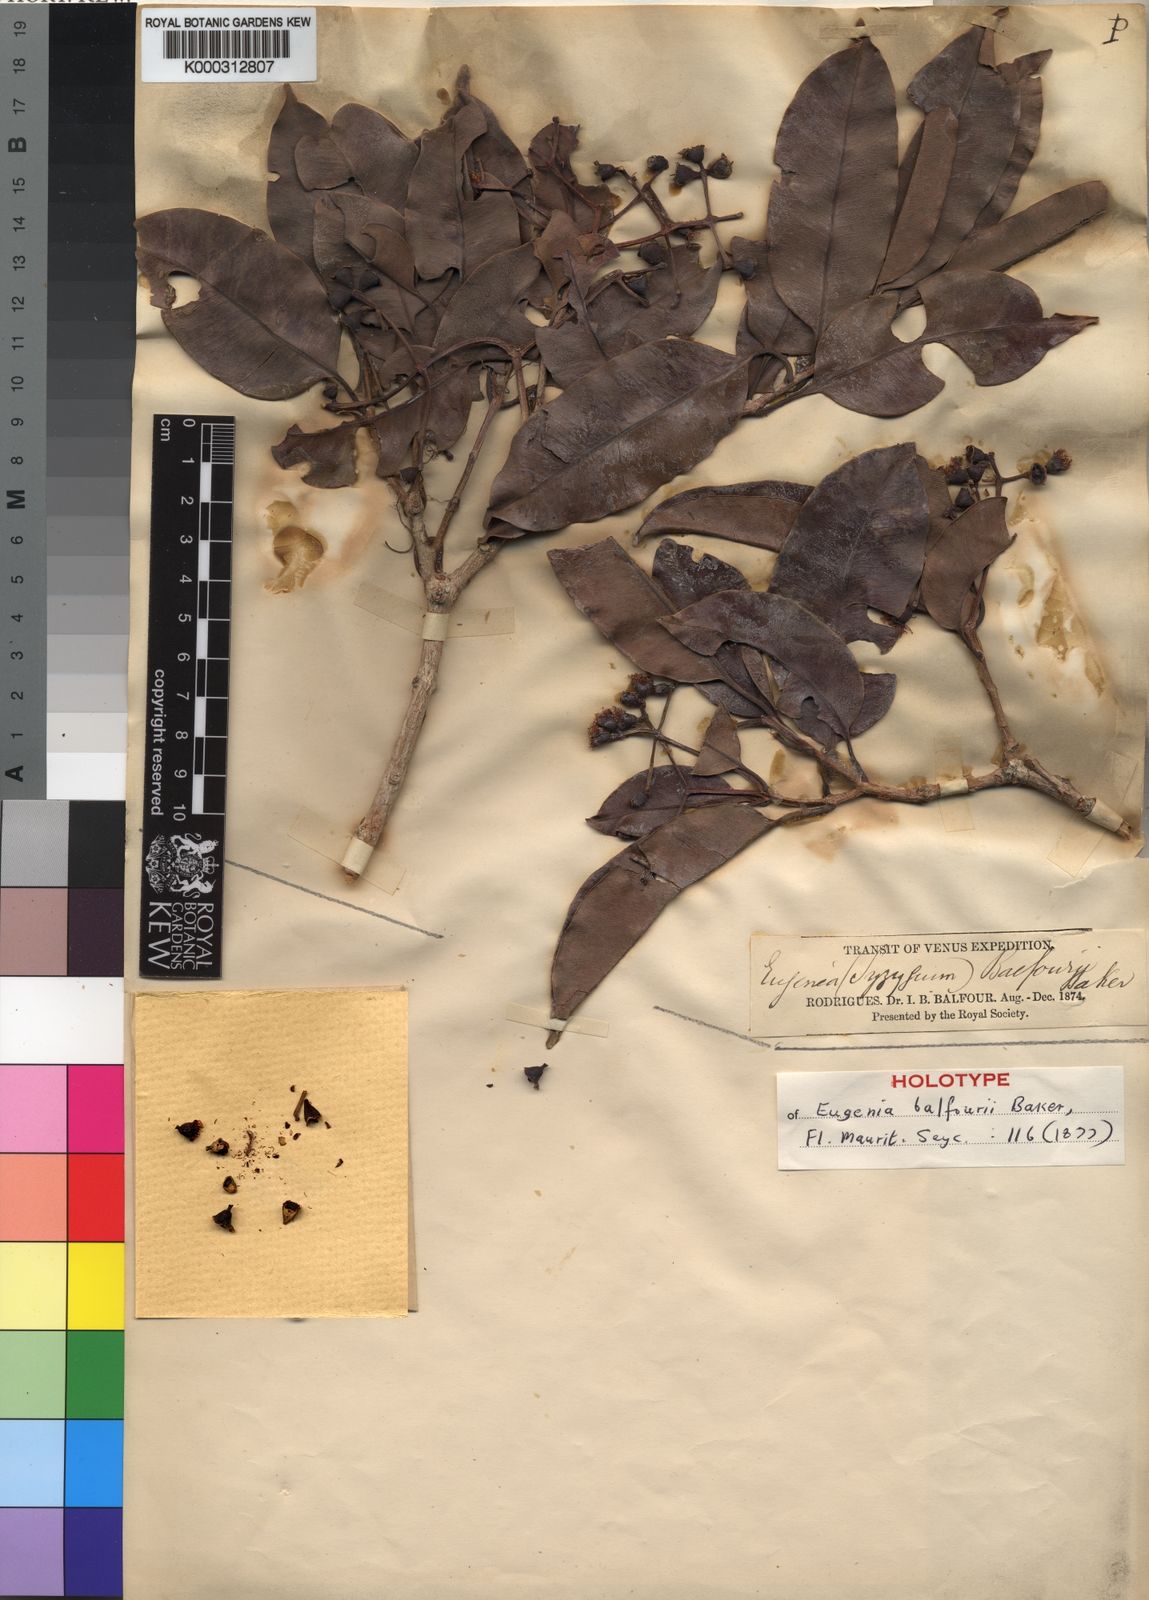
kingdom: Plantae
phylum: Tracheophyta
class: Magnoliopsida
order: Myrtales
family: Myrtaceae
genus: Syzygium
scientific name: Syzygium balfourii
